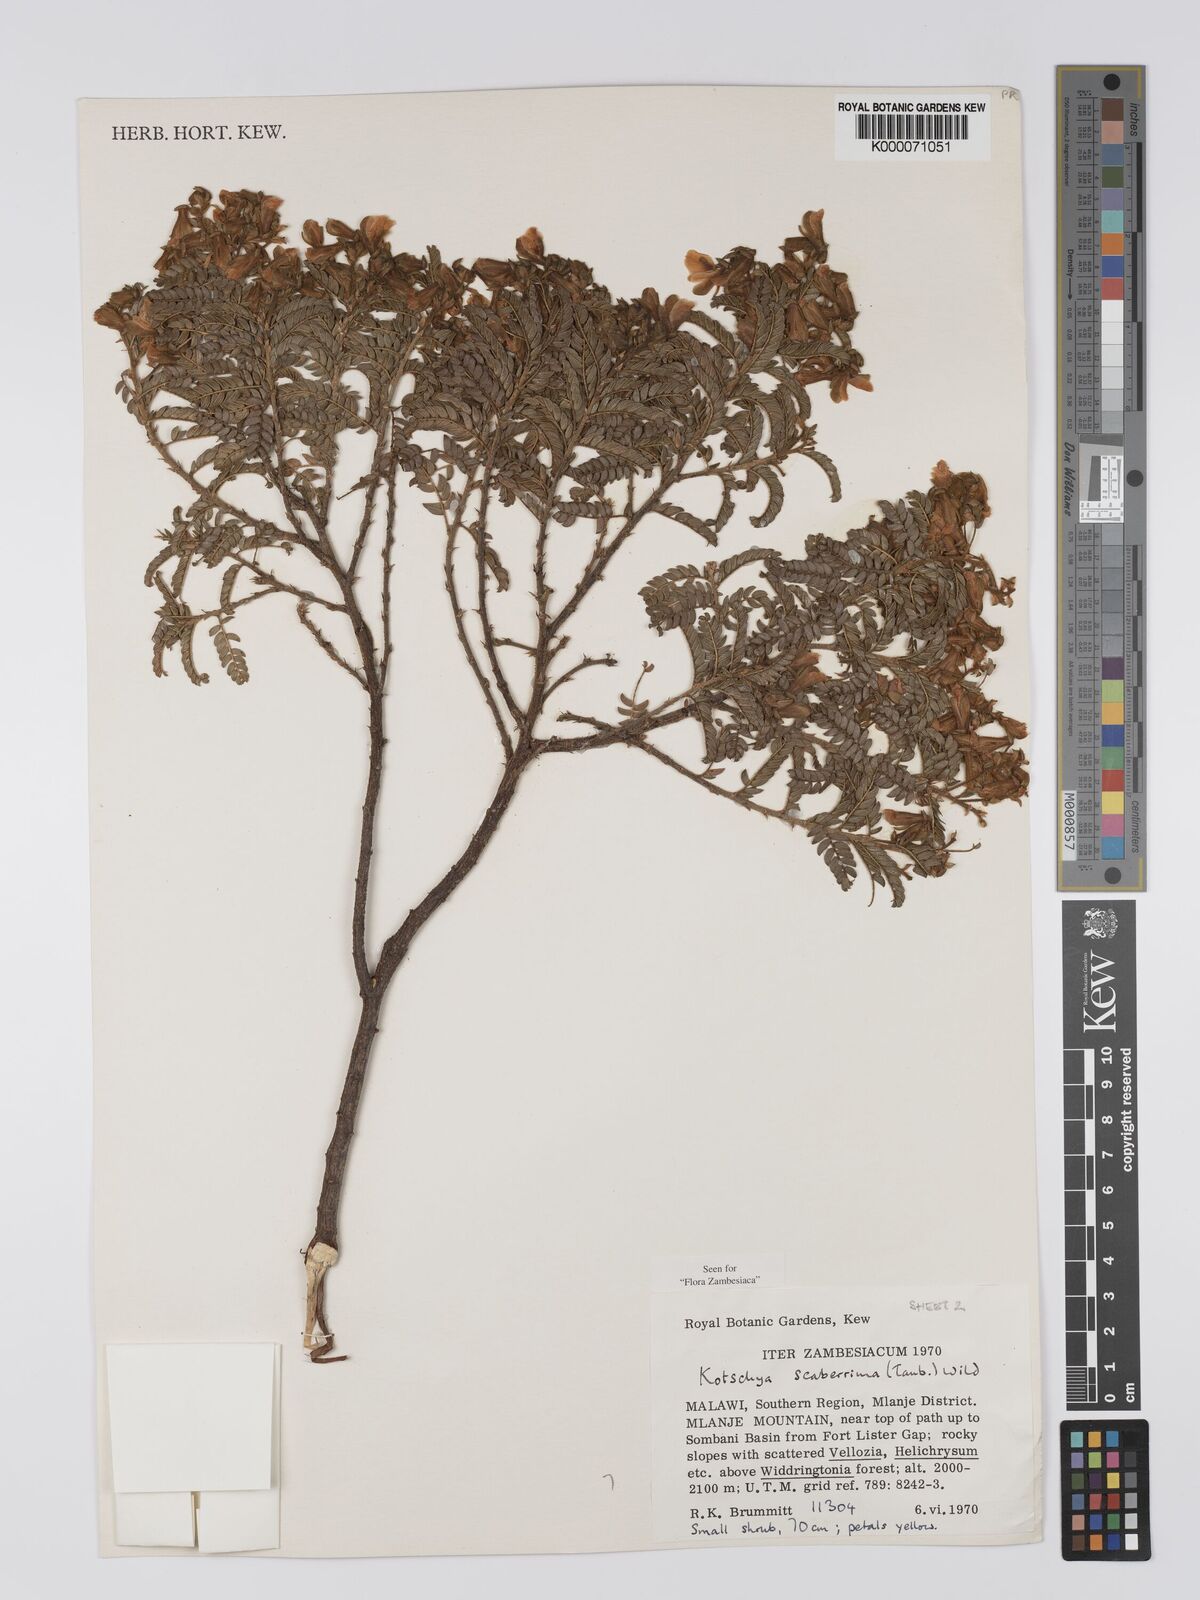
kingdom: Plantae
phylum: Tracheophyta
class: Magnoliopsida
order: Fabales
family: Fabaceae
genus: Kotschya
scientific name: Kotschya scaberrima
